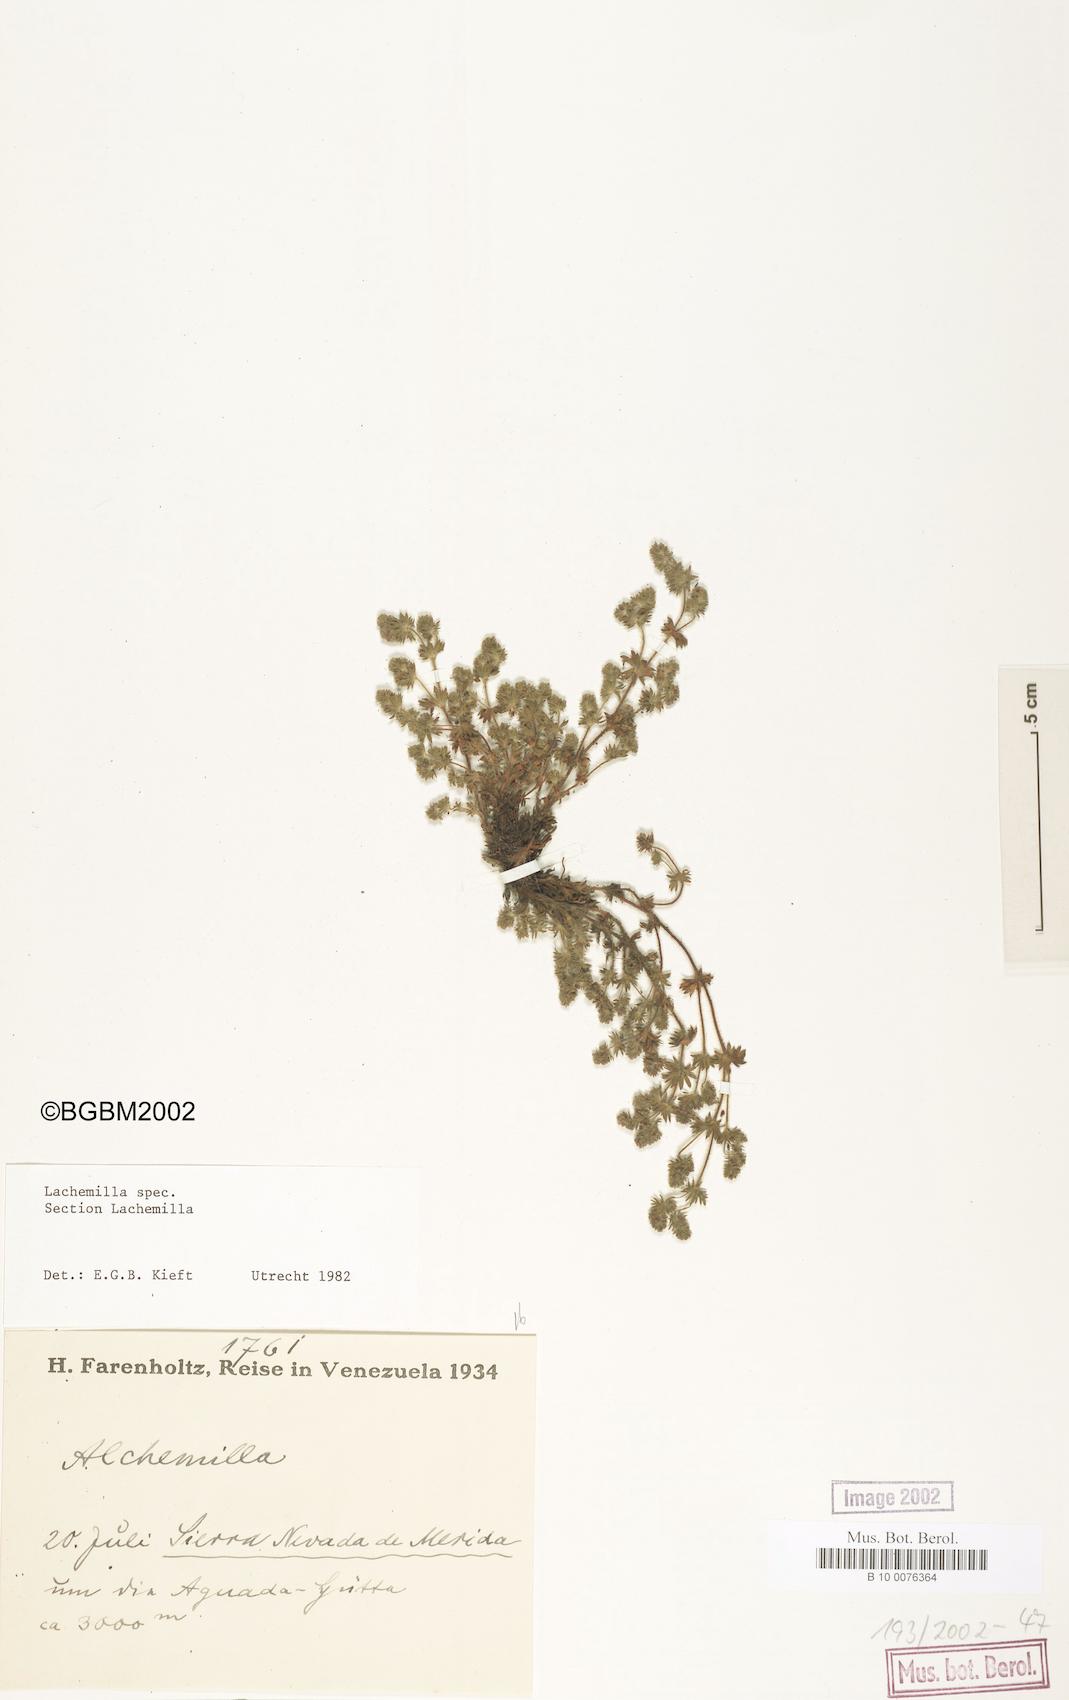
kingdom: Plantae
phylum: Tracheophyta
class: Magnoliopsida
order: Rosales
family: Rosaceae
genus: Lachemilla
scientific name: Lachemilla
